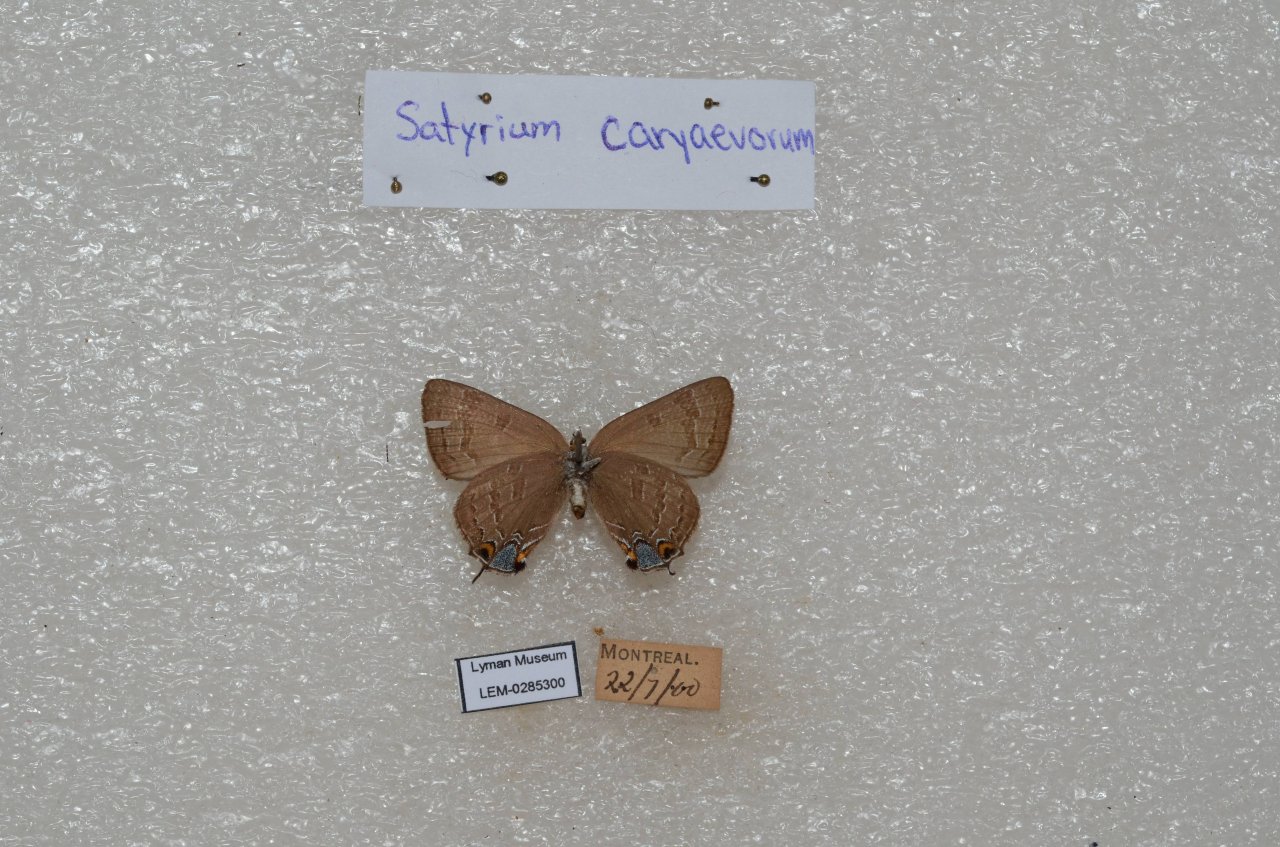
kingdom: Animalia
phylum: Arthropoda
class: Insecta
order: Lepidoptera
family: Lycaenidae
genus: Strymon
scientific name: Strymon caryaevorus
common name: Hickory Hairstreak
